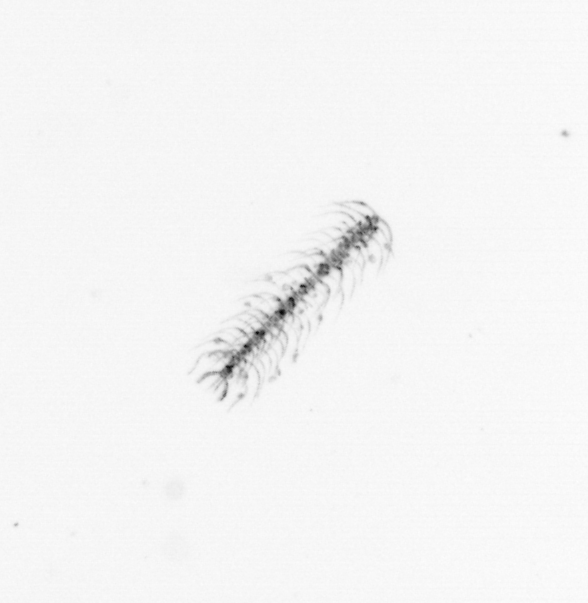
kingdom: Chromista
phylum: Ochrophyta
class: Bacillariophyceae
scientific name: Bacillariophyceae
